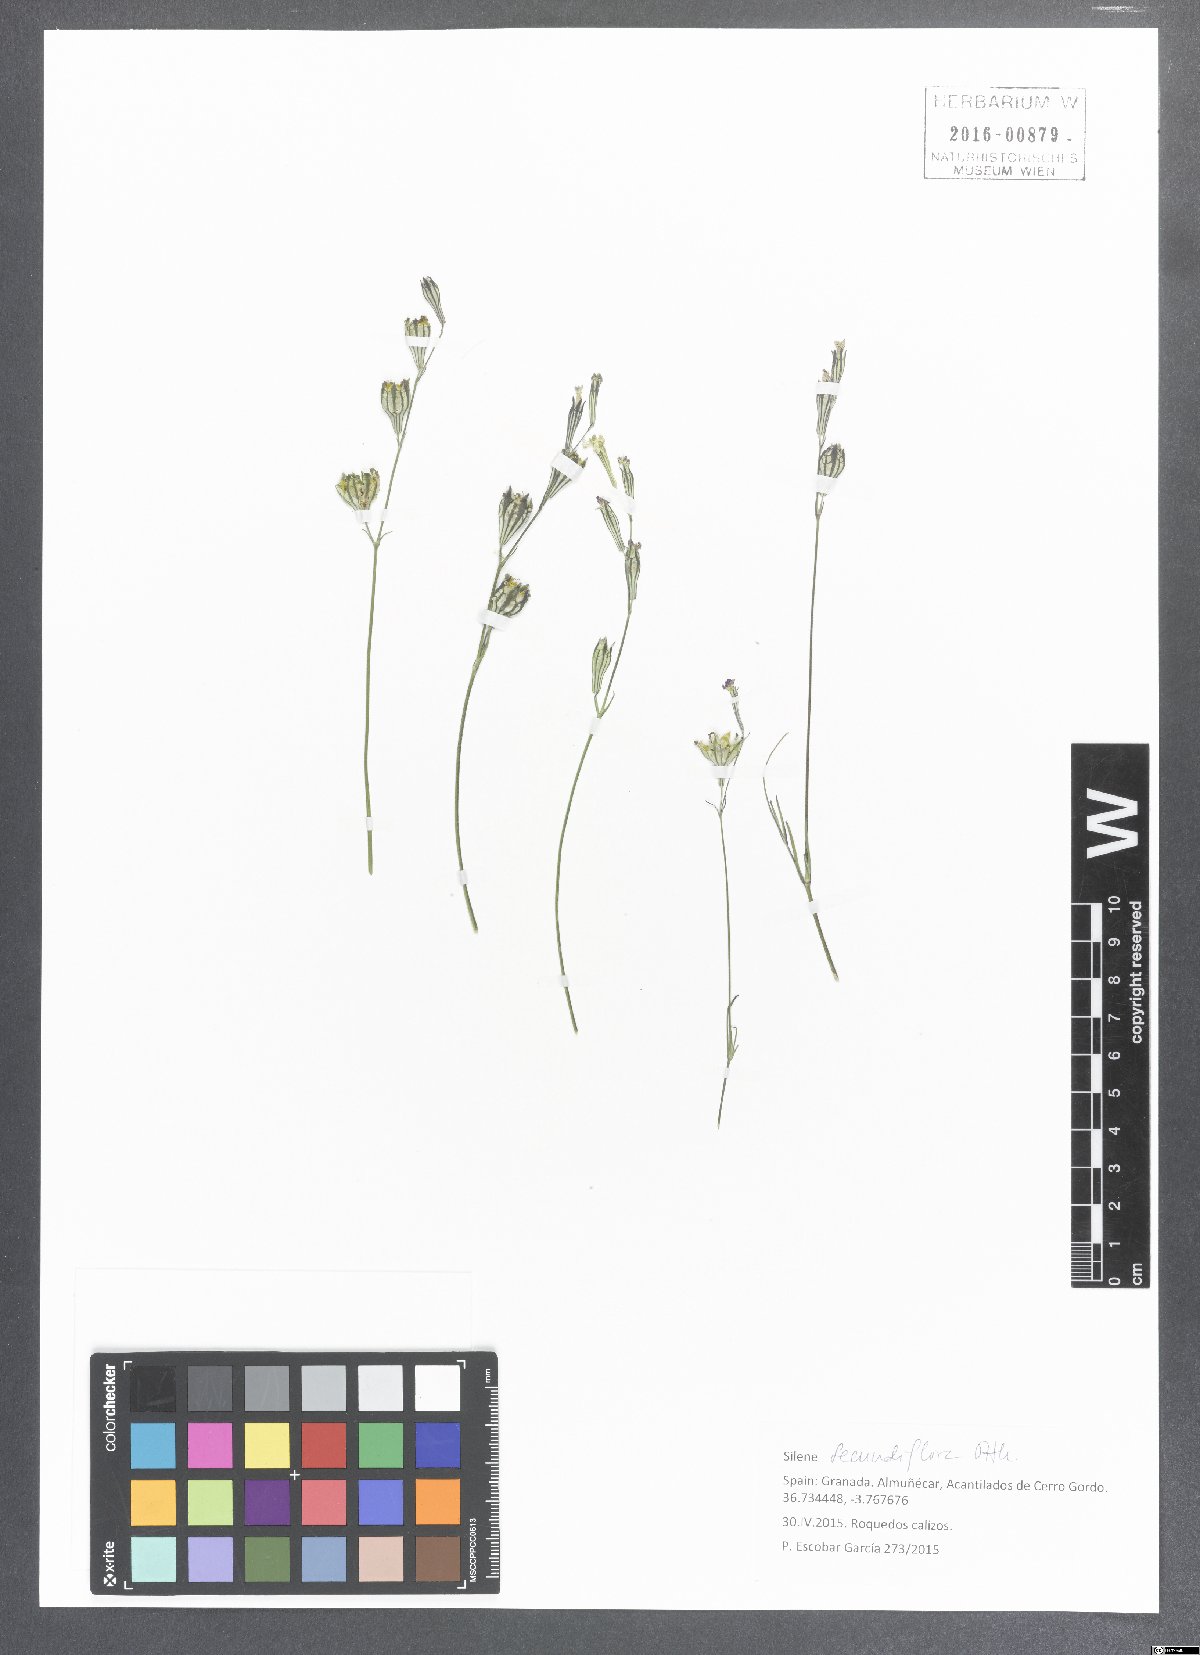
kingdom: Plantae
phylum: Tracheophyta
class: Magnoliopsida
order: Caryophyllales
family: Caryophyllaceae
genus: Silene
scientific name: Silene secundiflora
